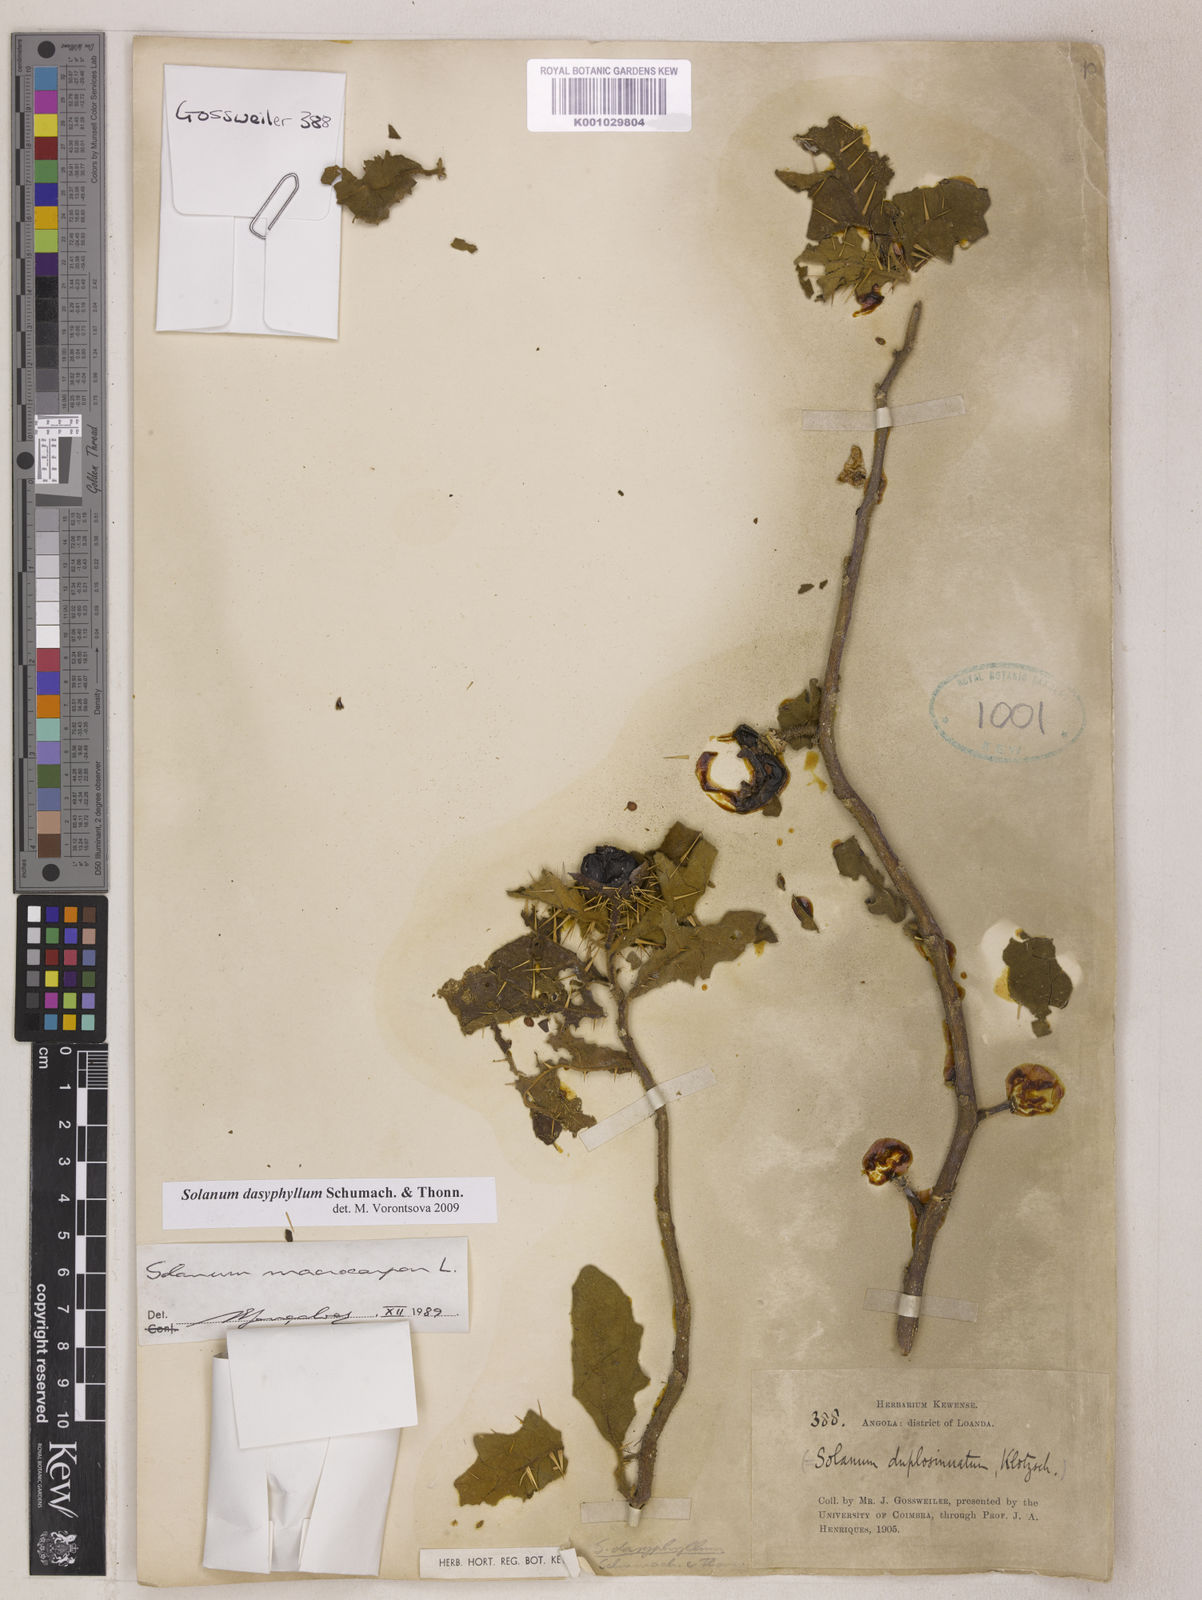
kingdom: Plantae
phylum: Tracheophyta
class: Magnoliopsida
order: Solanales
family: Solanaceae
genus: Solanum
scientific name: Solanum dasyphyllum
